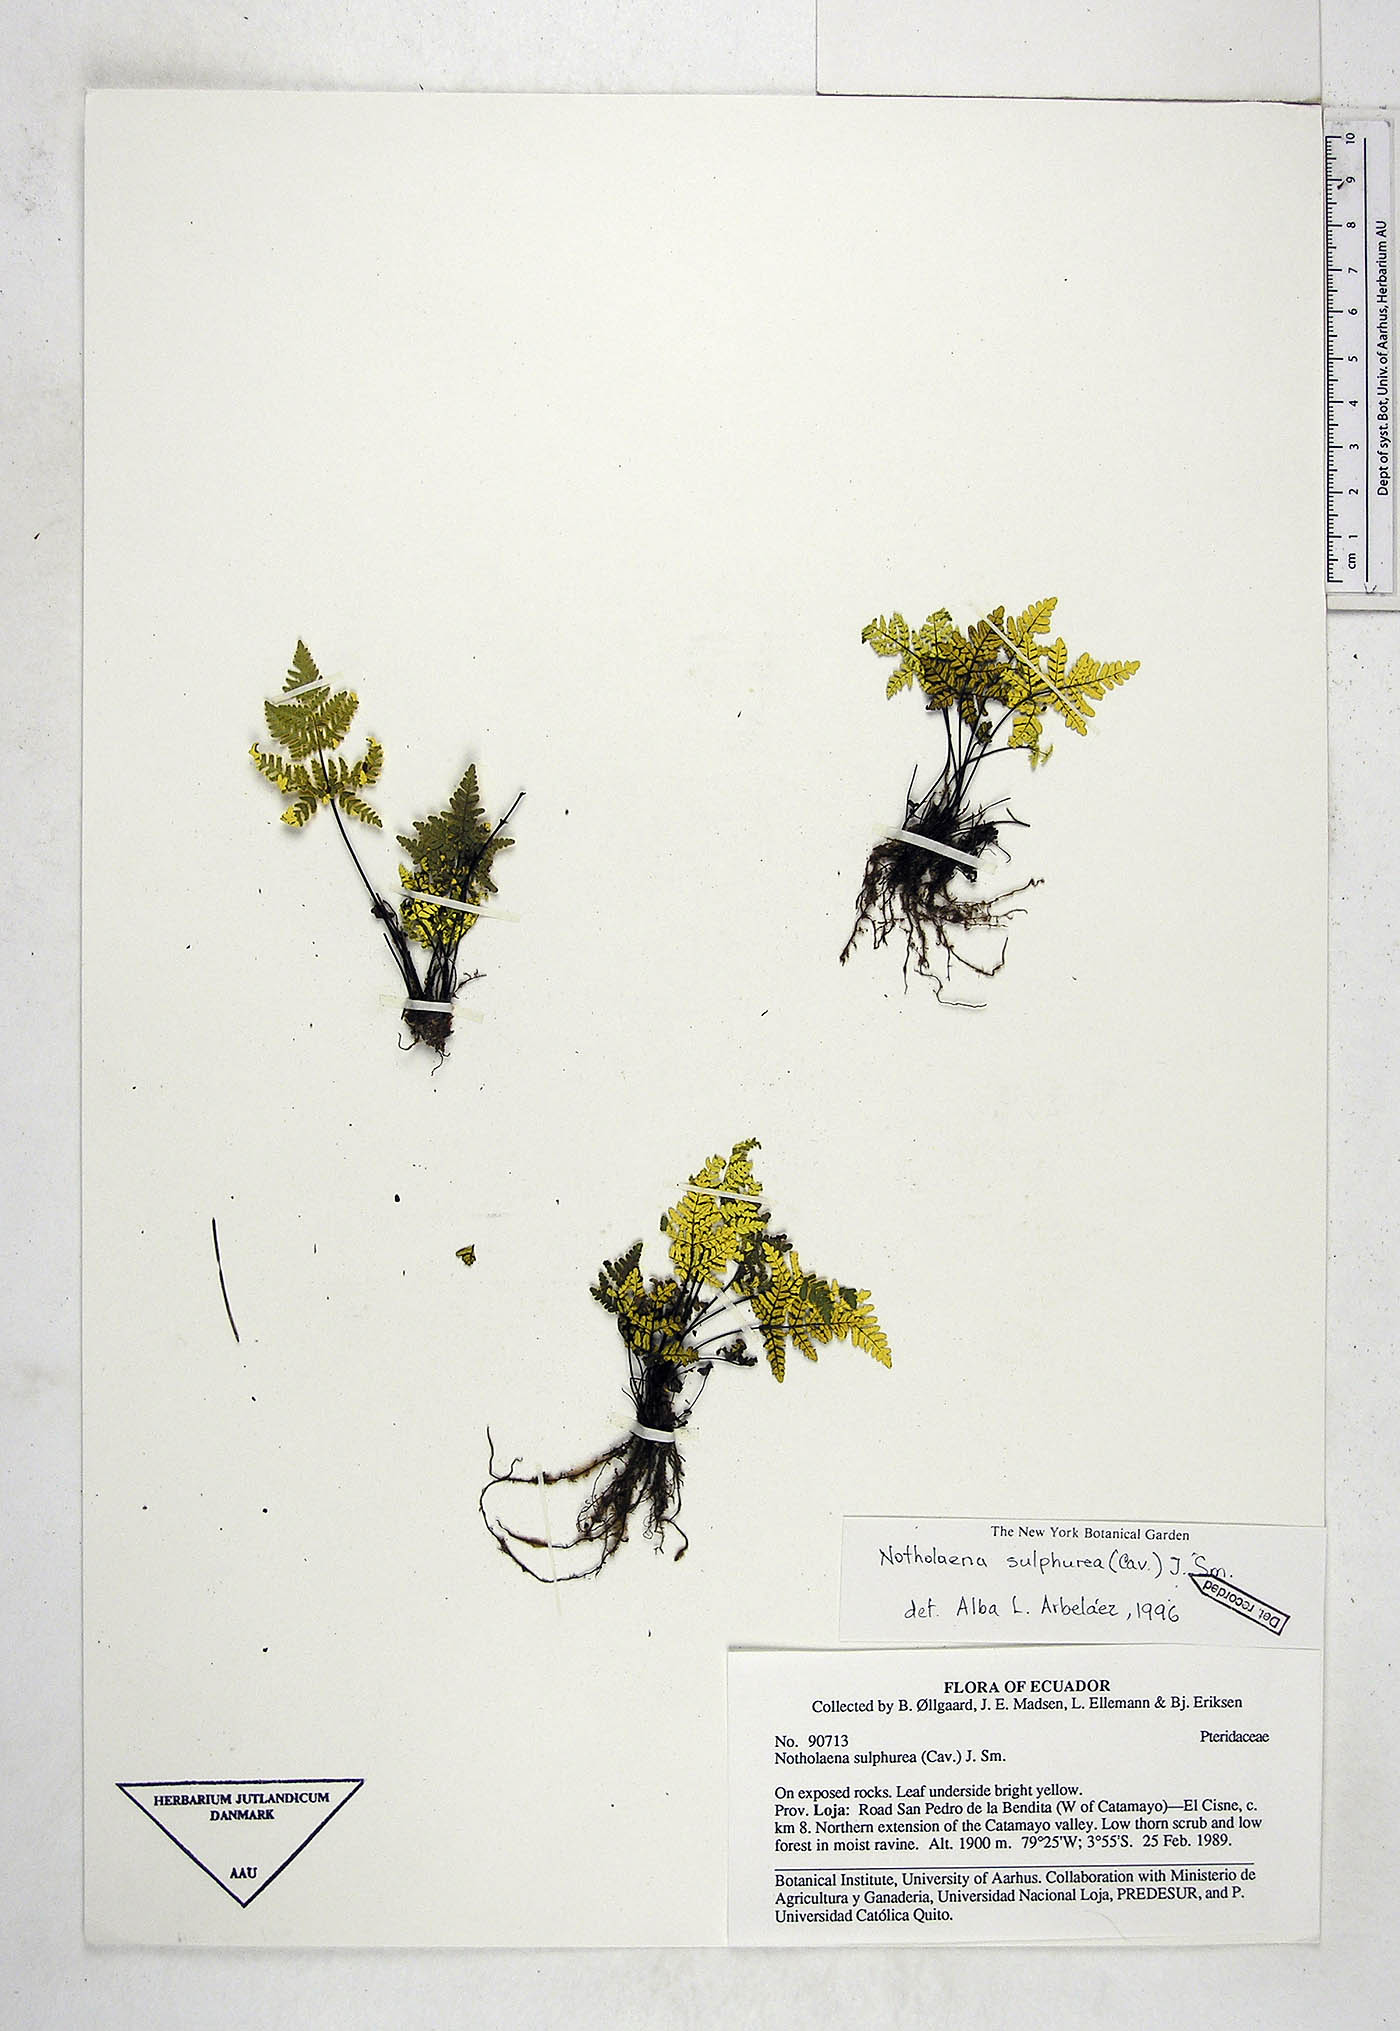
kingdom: Plantae
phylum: Tracheophyta
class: Polypodiopsida
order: Polypodiales
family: Pteridaceae
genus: Notholaena
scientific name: Notholaena sulphurea
